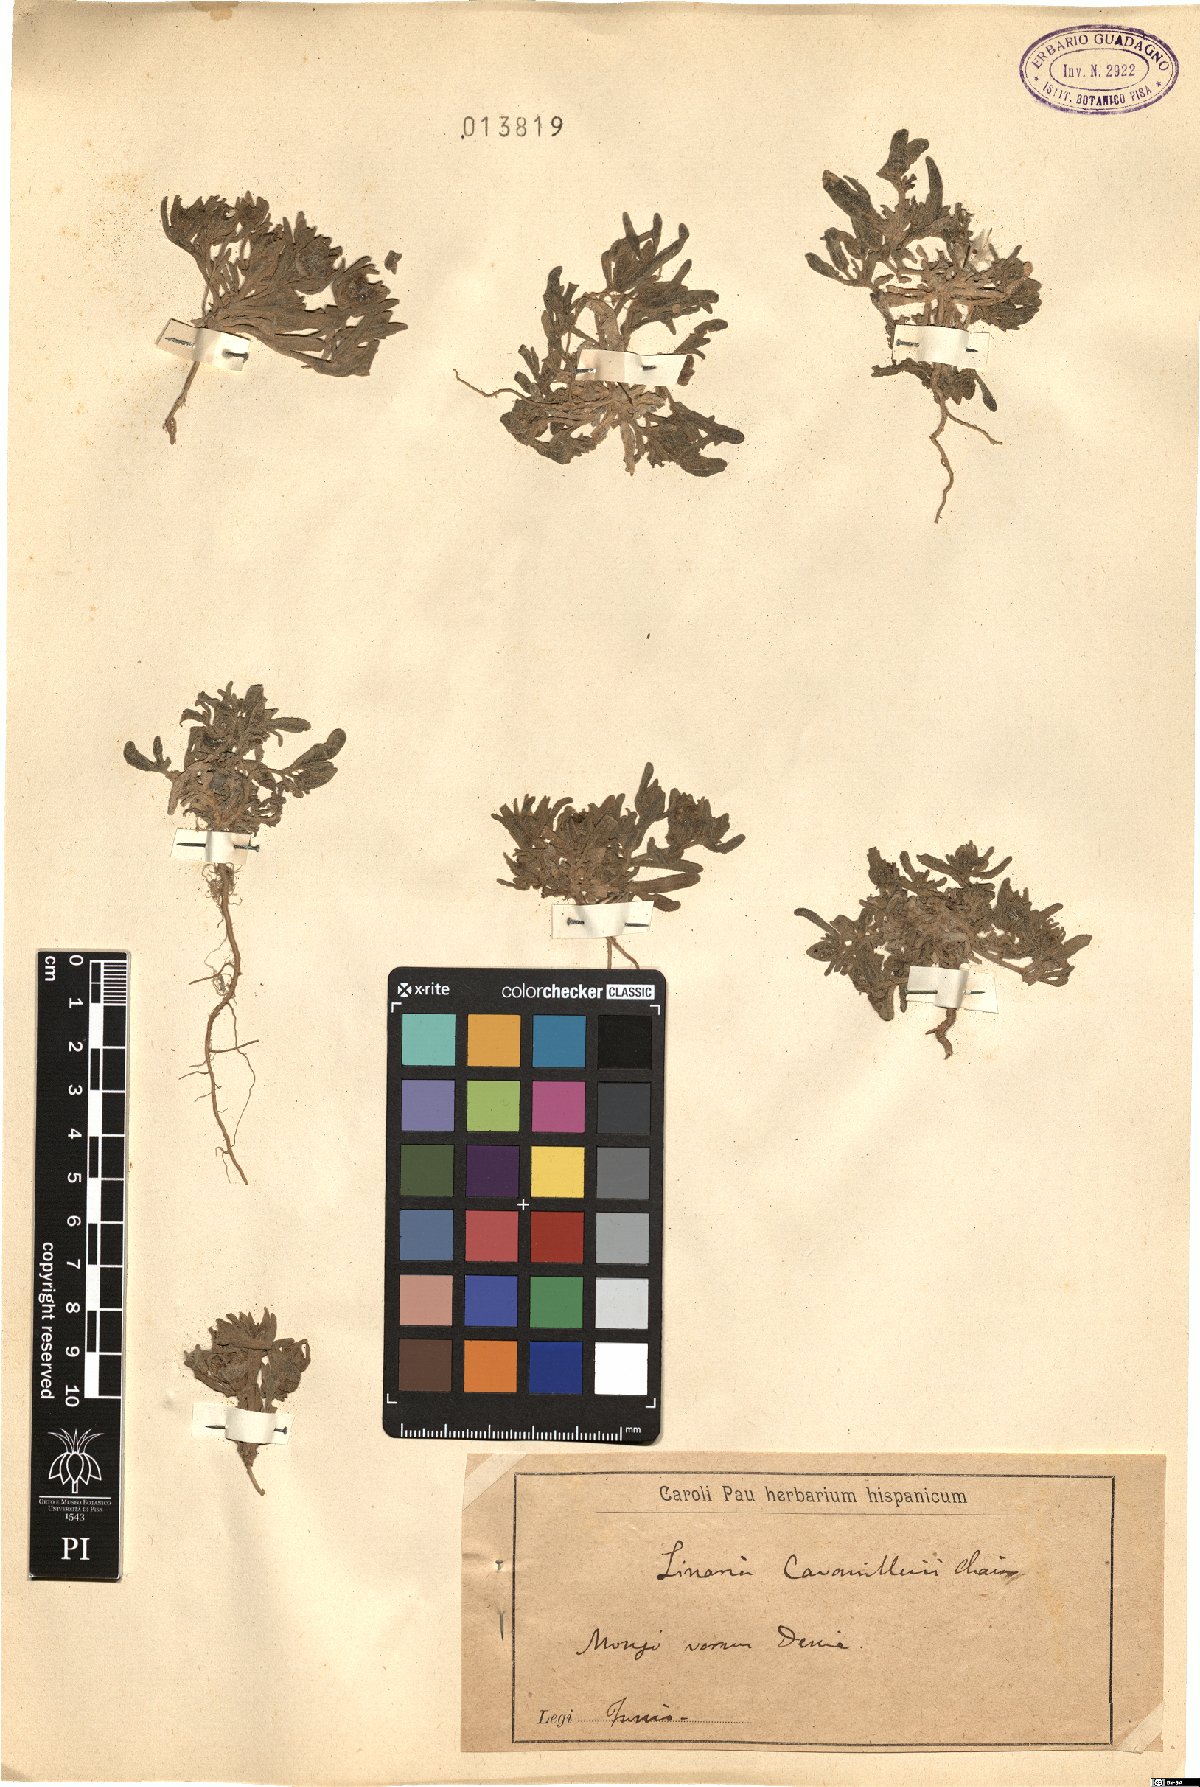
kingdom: Plantae
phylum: Tracheophyta
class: Magnoliopsida
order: Lamiales
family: Plantaginaceae
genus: Linaria
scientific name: Linaria cavanillesii
